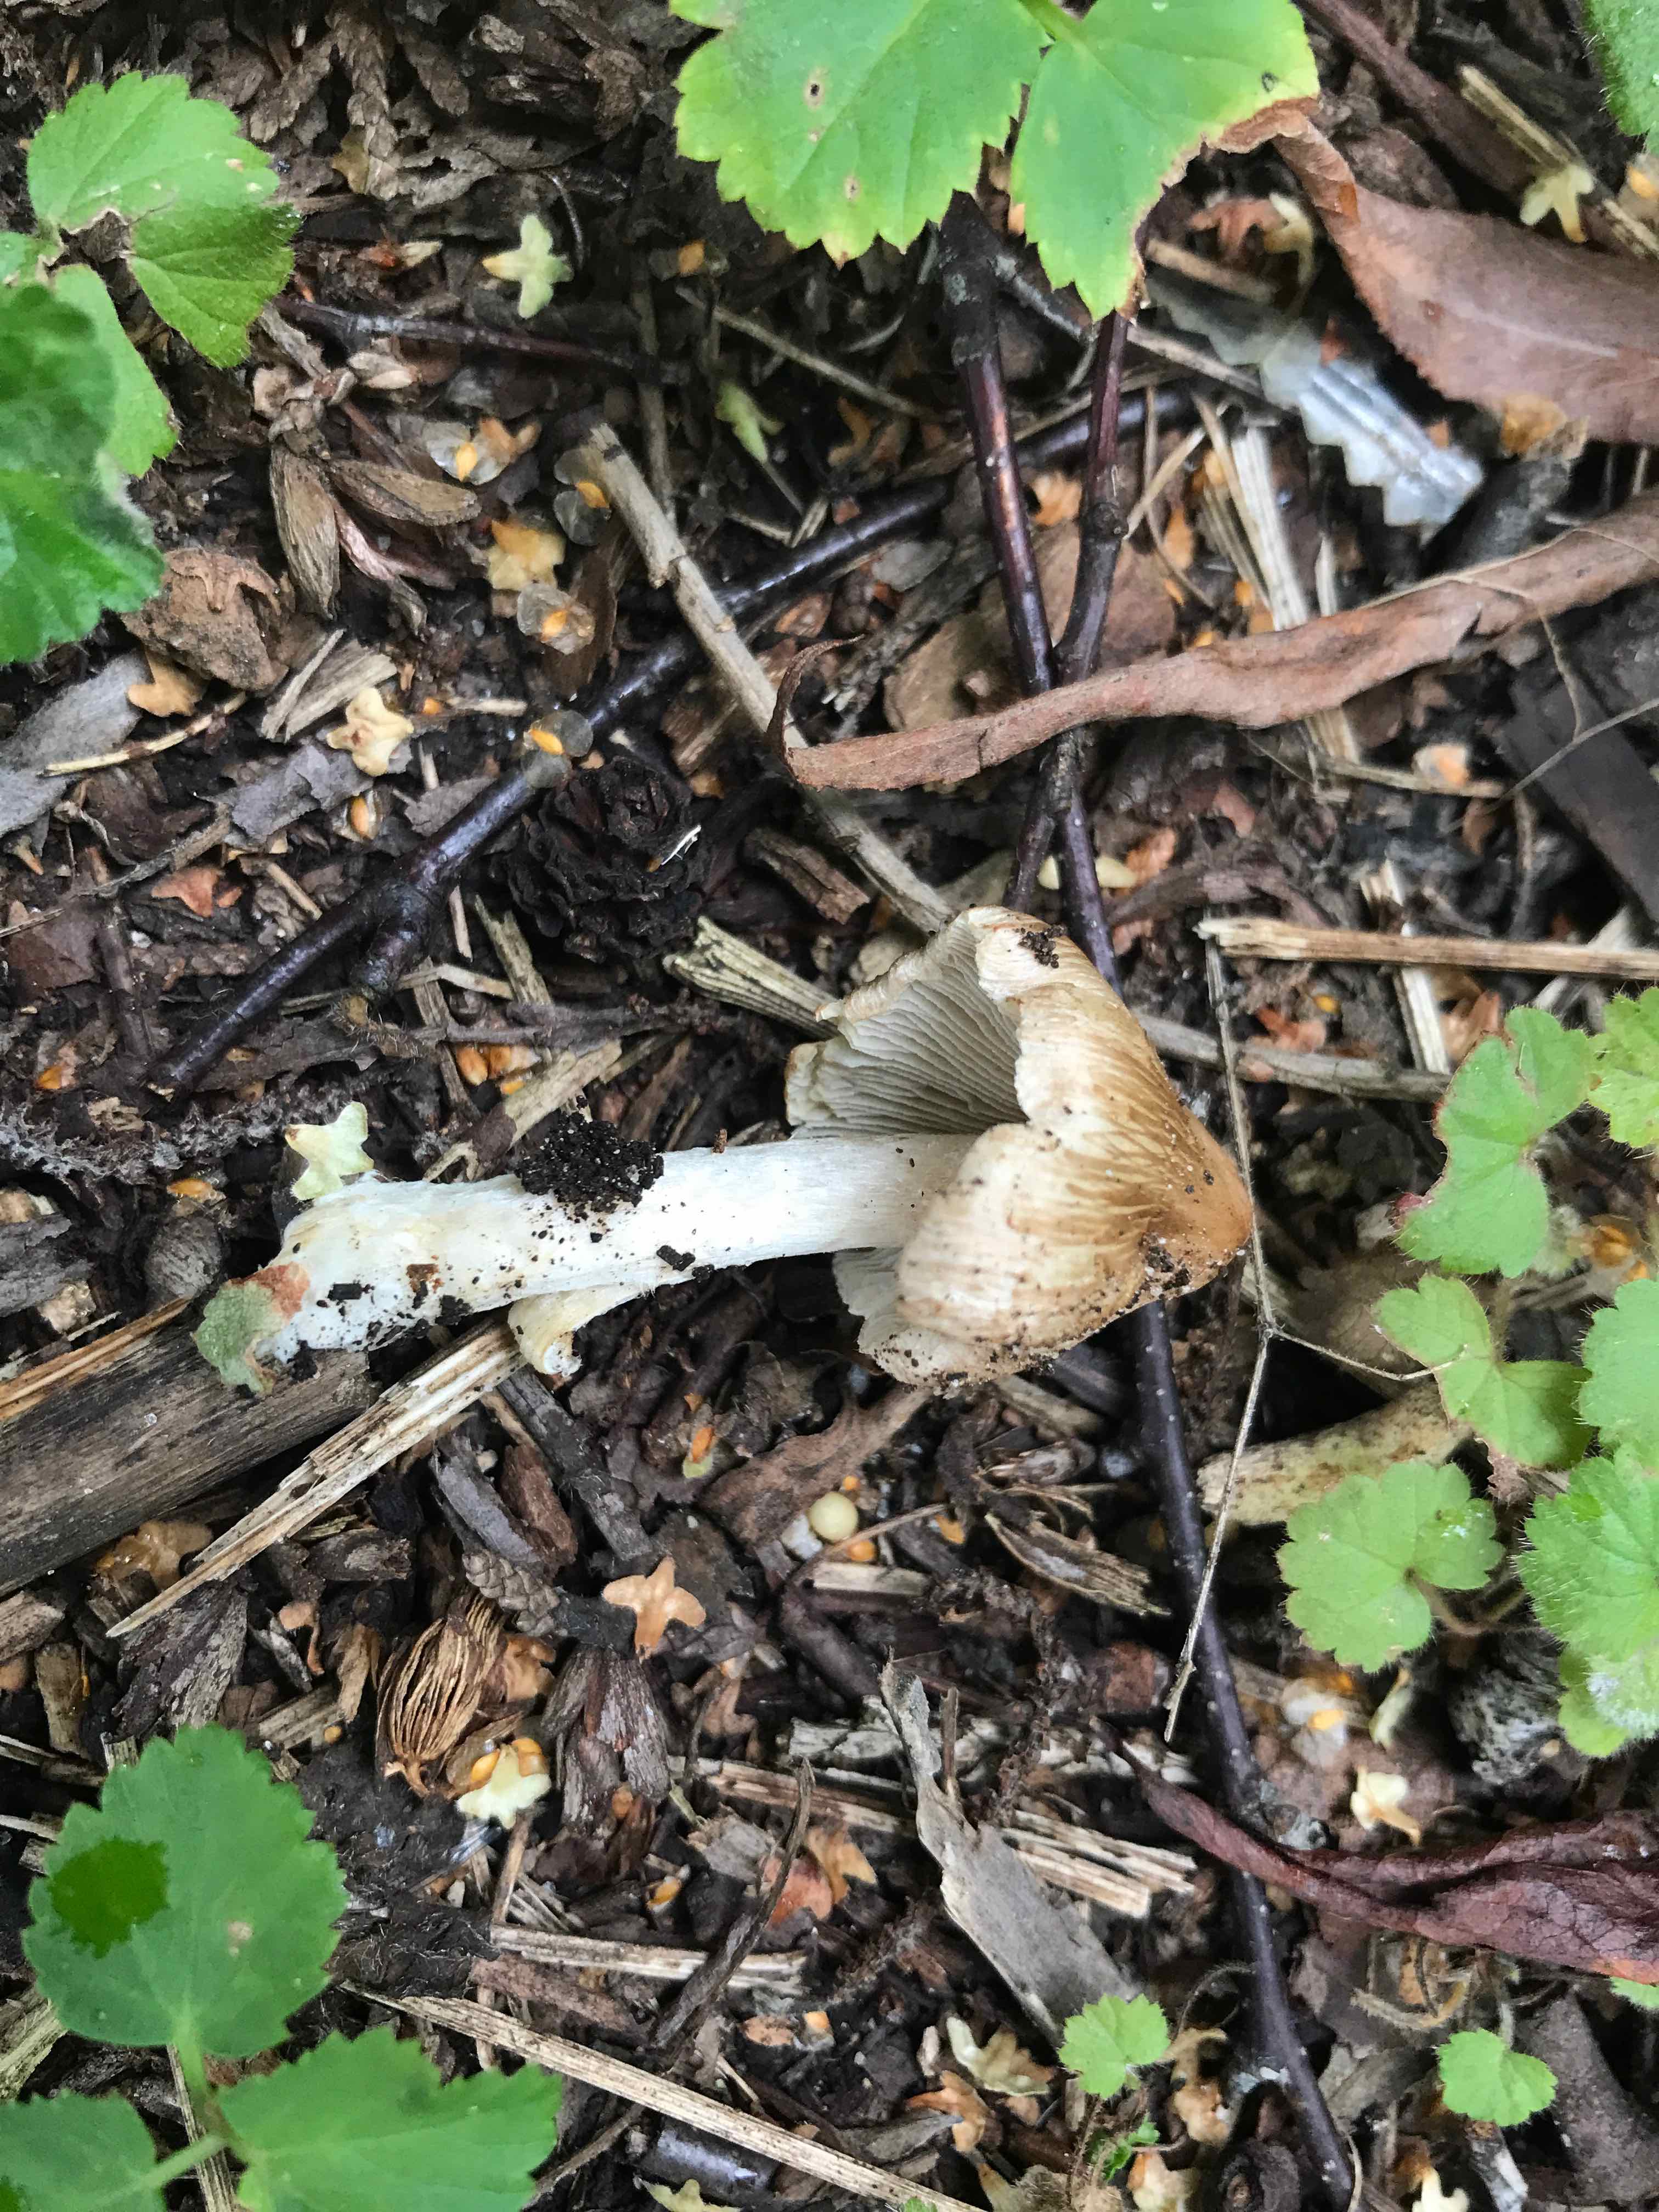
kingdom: Fungi
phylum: Basidiomycota
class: Agaricomycetes
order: Agaricales
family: Inocybaceae
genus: Pseudosperma
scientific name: Pseudosperma
